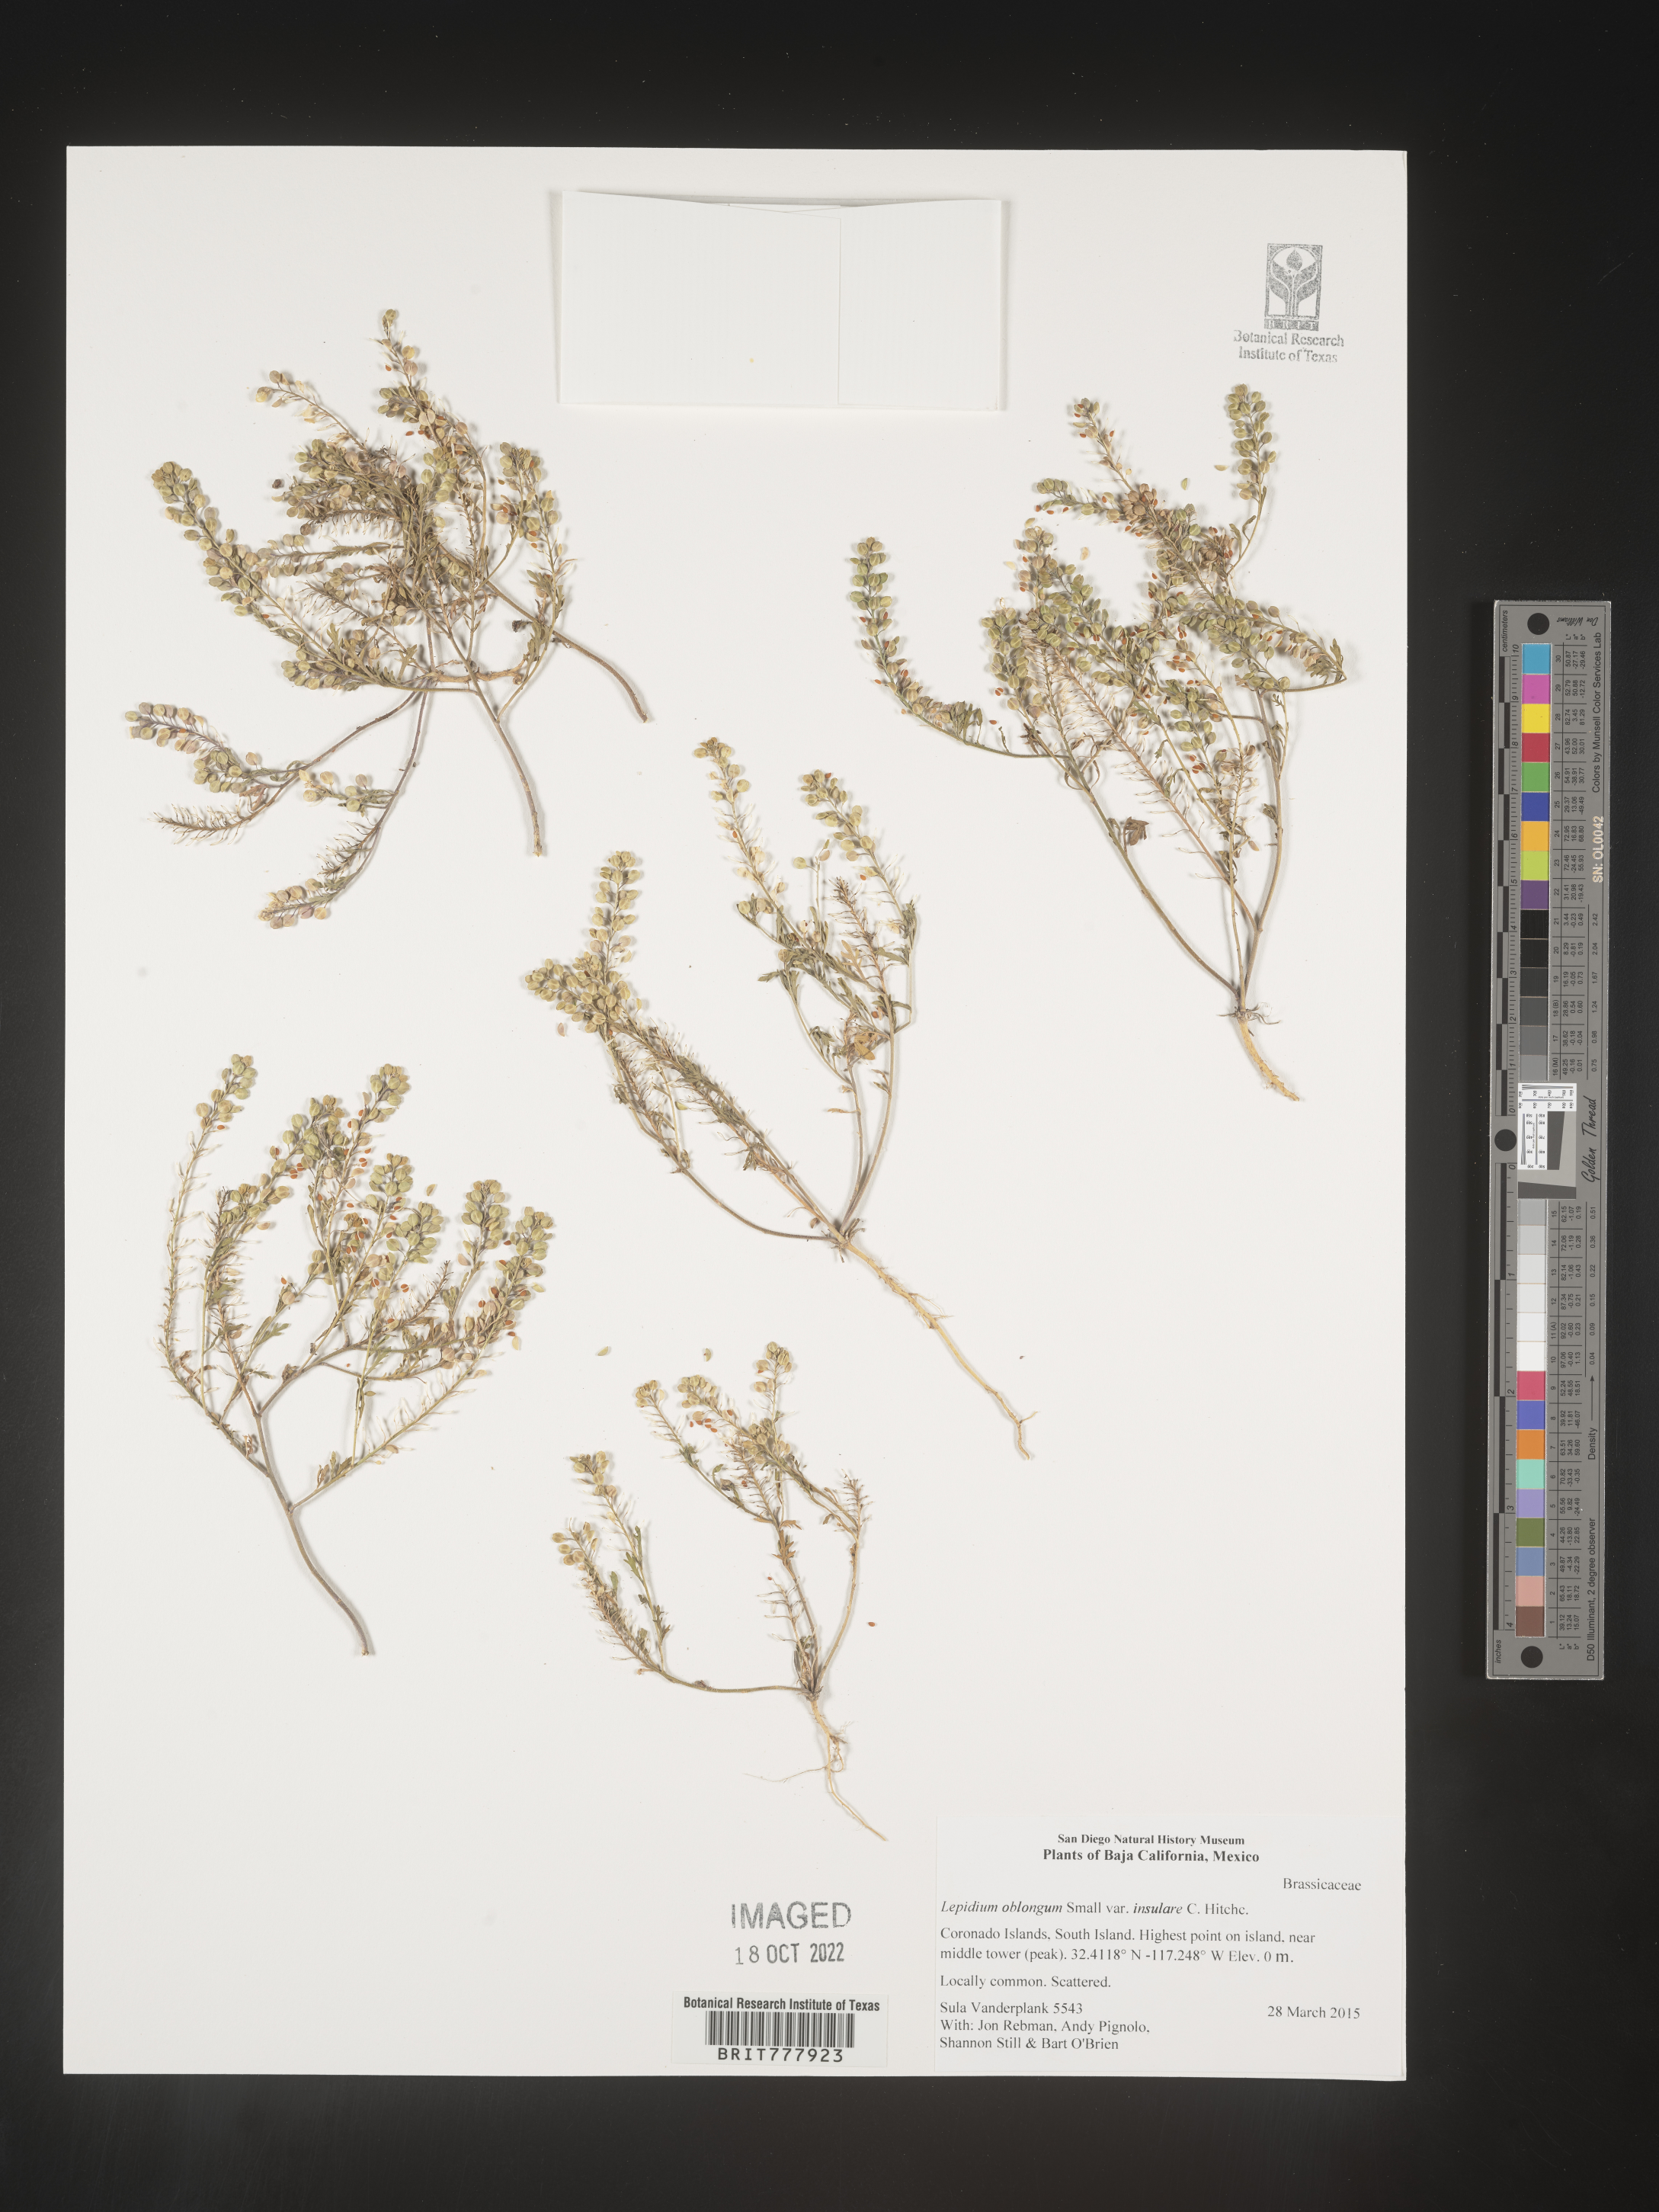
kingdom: Plantae
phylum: Tracheophyta
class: Magnoliopsida
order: Brassicales
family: Brassicaceae
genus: Lepidium
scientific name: Lepidium
